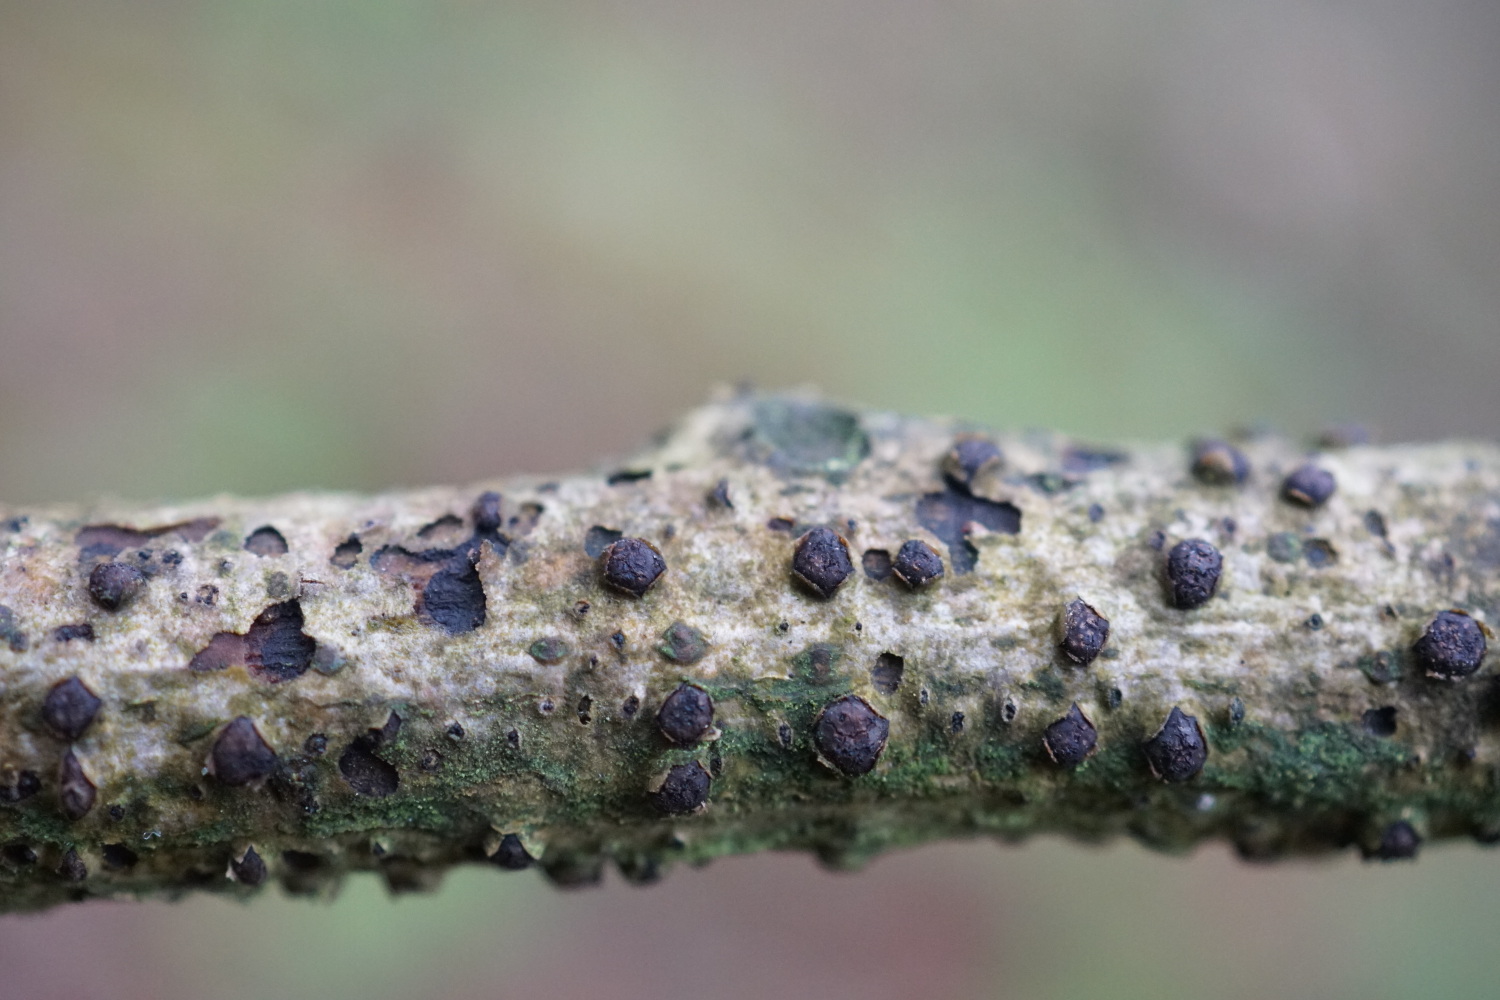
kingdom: Fungi
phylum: Ascomycota
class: Sordariomycetes
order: Xylariales
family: Diatrypaceae
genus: Diatrypella
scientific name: Diatrypella quercina
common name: ege-kulskorpe
